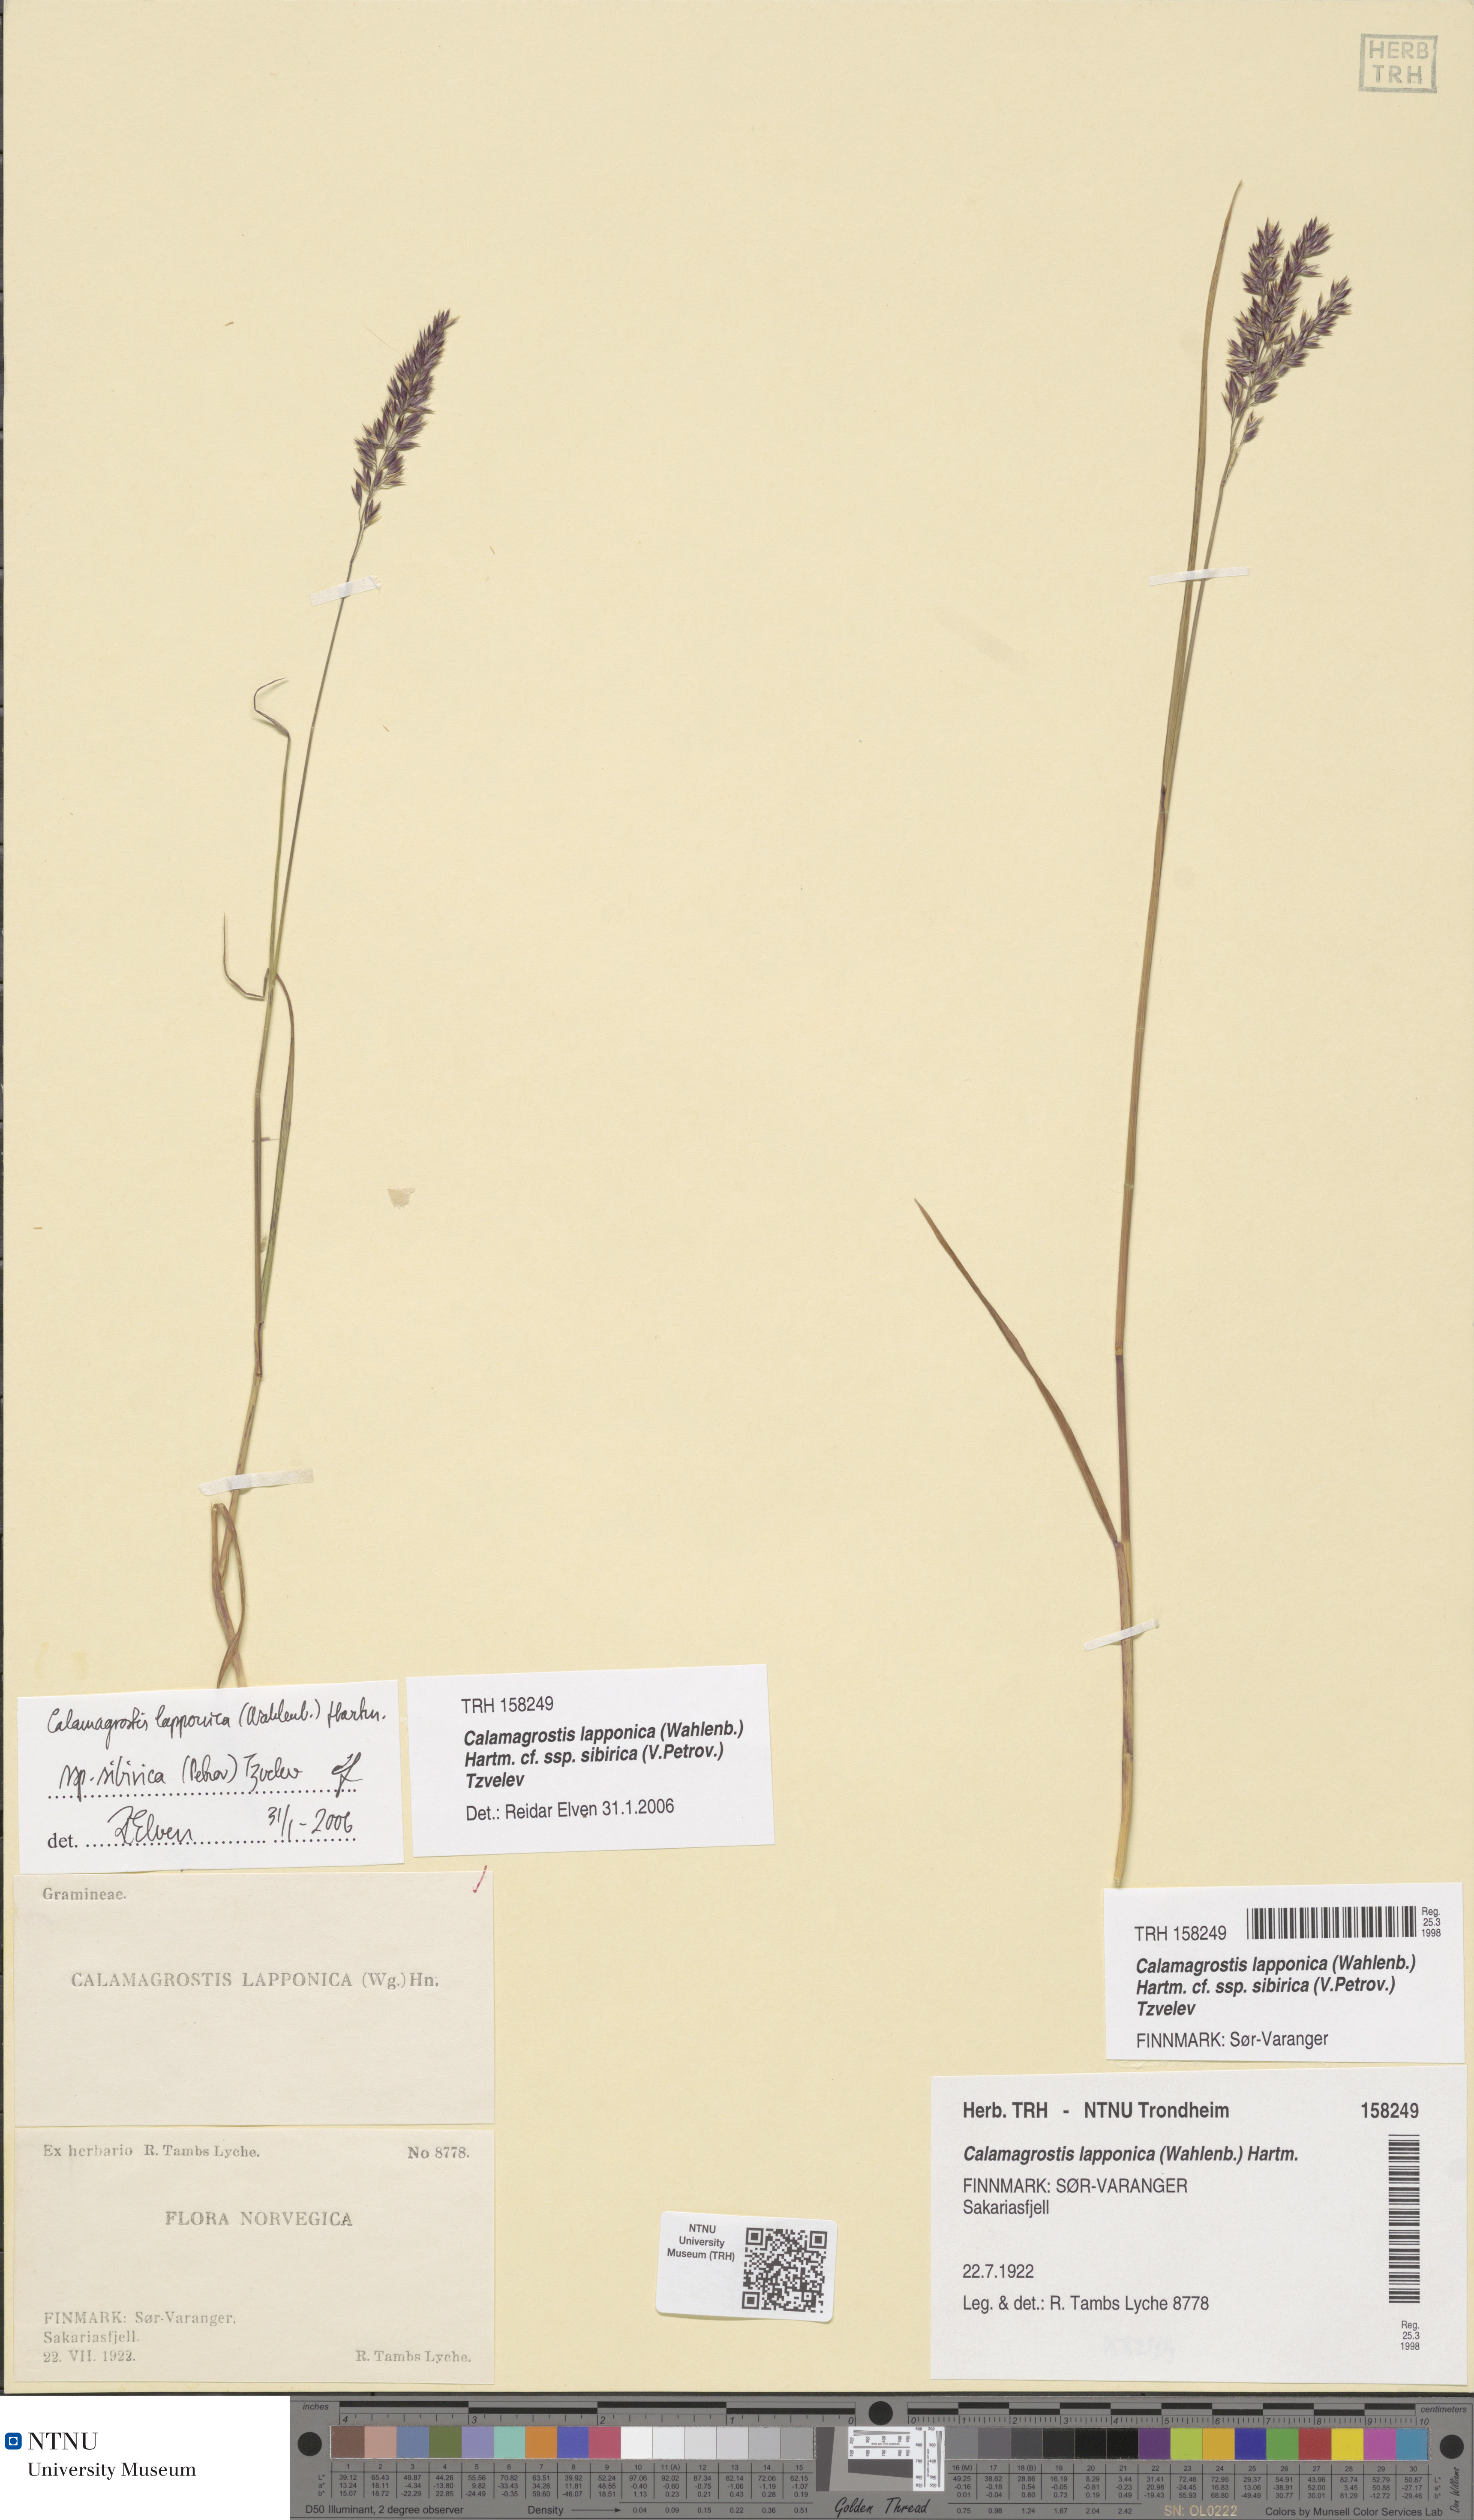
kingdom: Plantae
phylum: Tracheophyta
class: Liliopsida
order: Poales
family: Poaceae
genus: Calamagrostis
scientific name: Calamagrostis lapponica
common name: Lapland reedgrass
